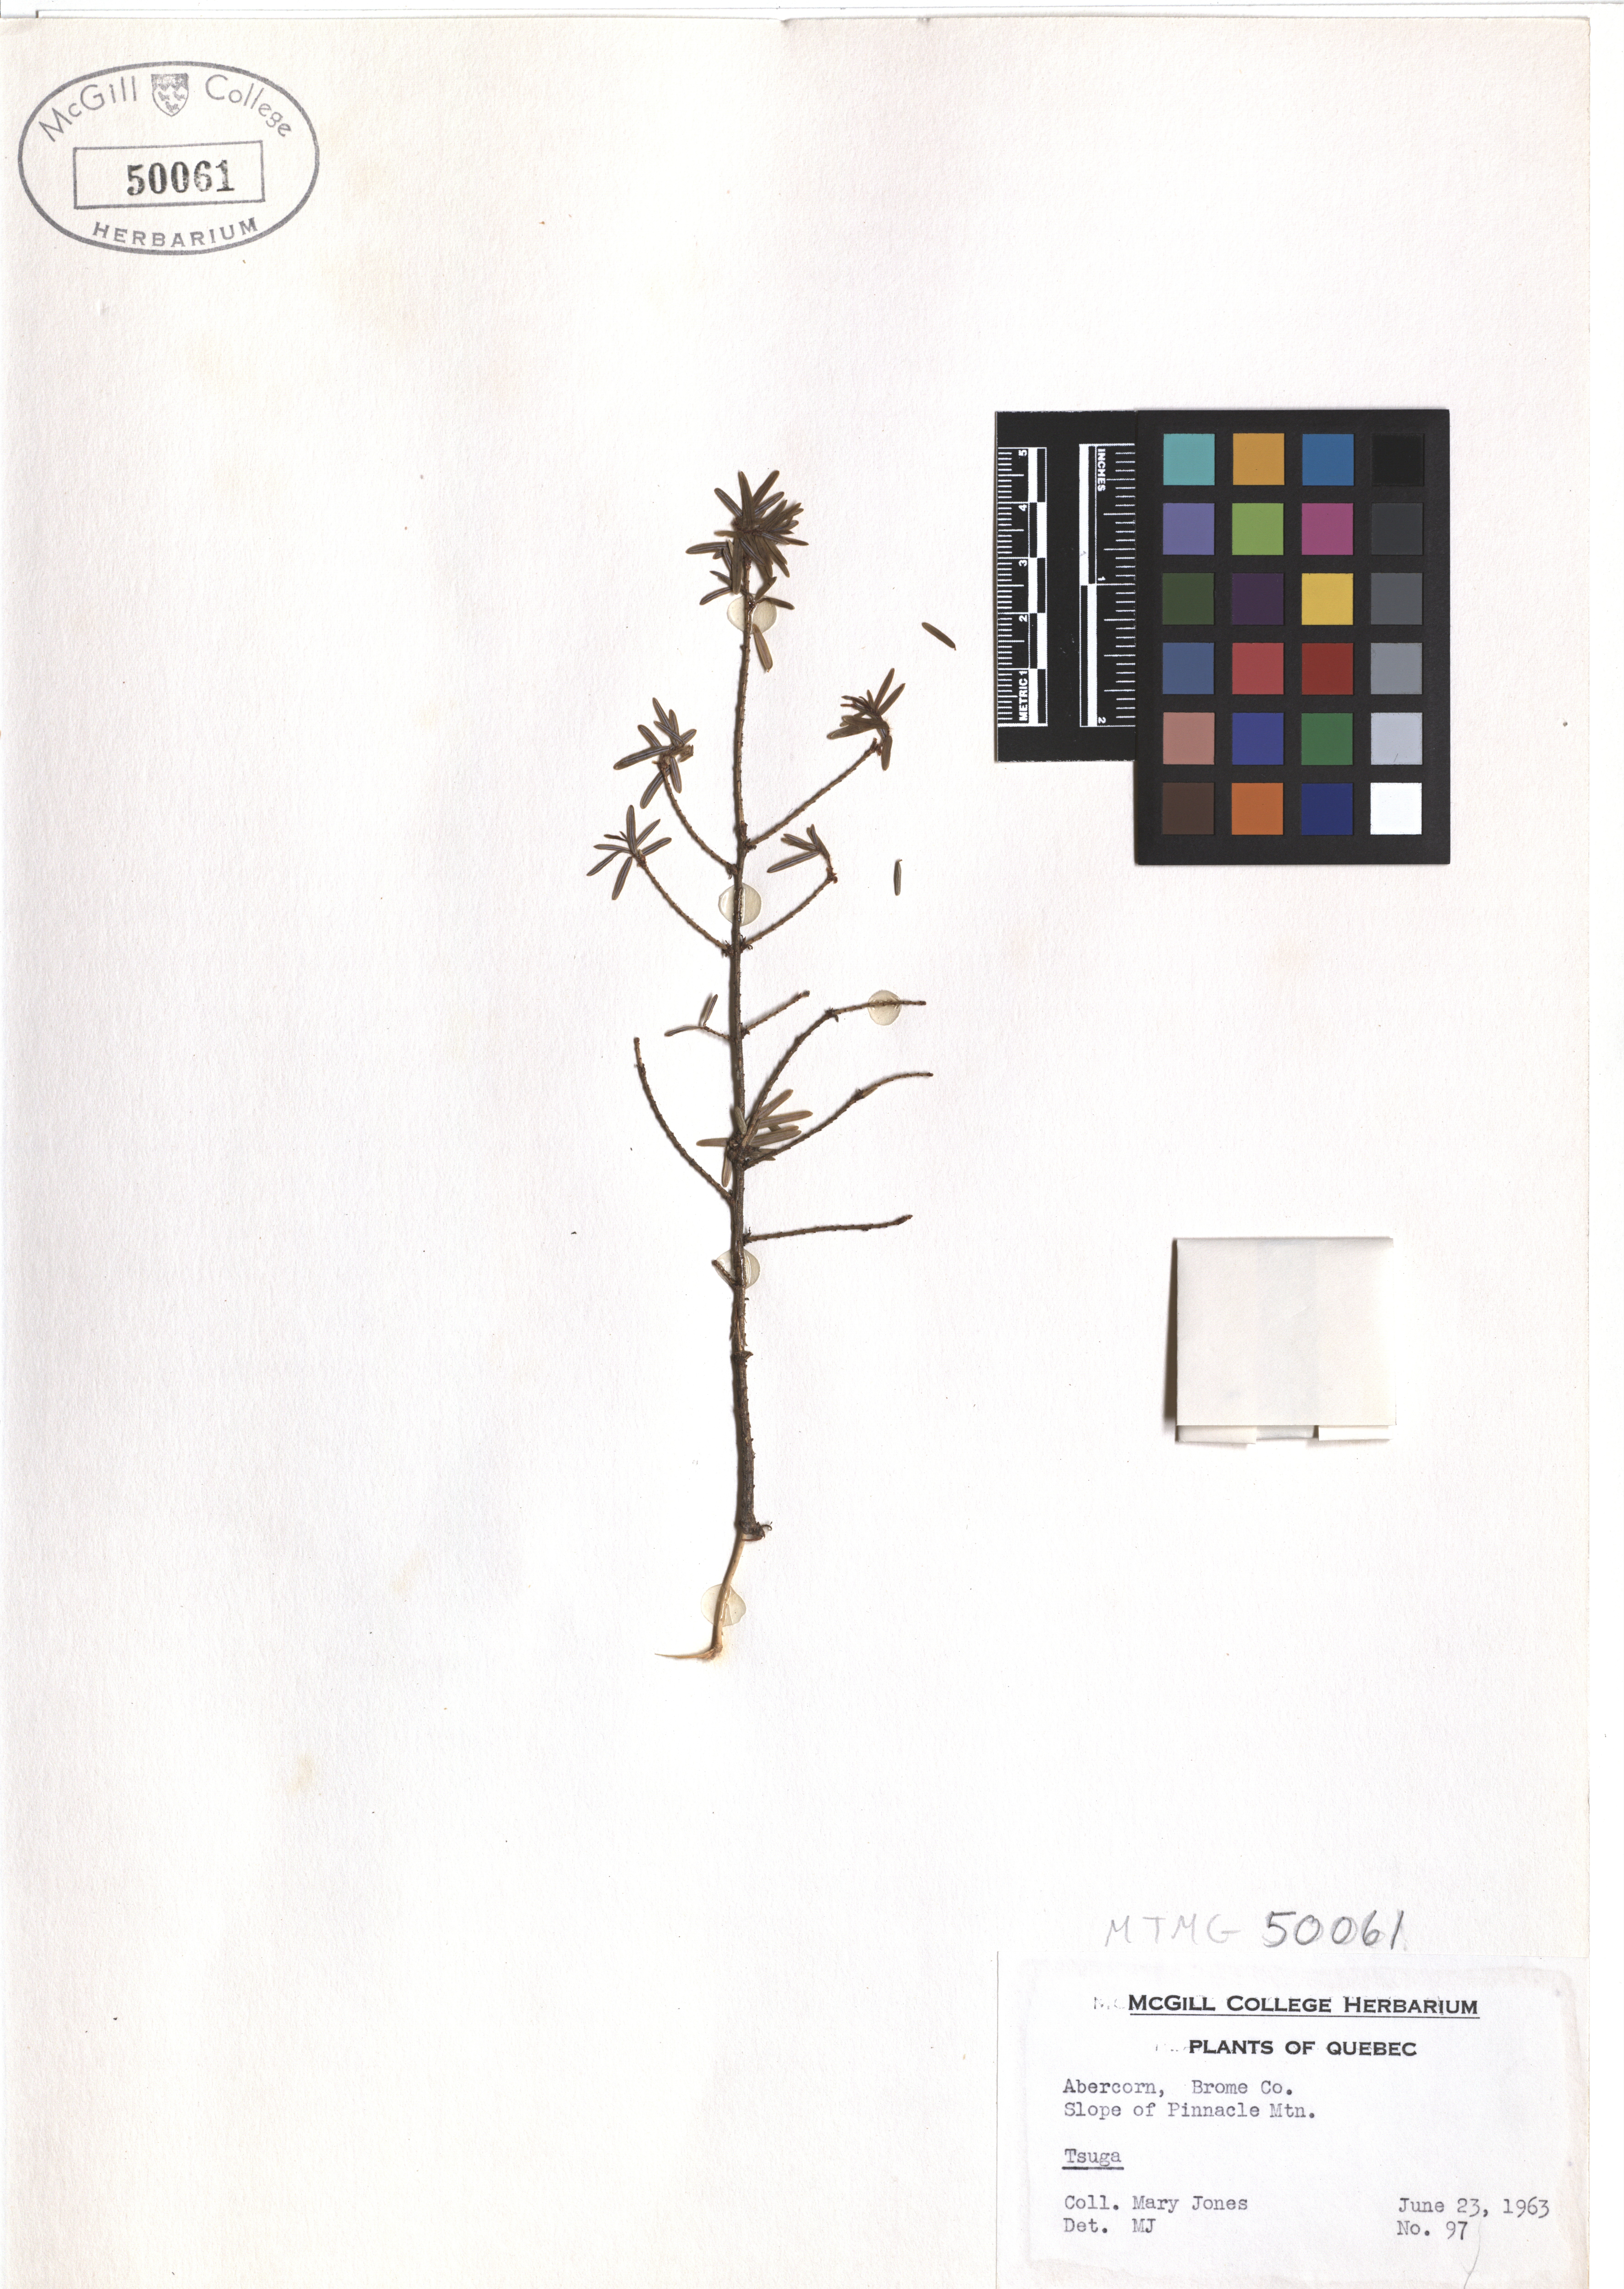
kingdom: Plantae
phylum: Tracheophyta
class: Pinopsida
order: Pinales
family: Pinaceae
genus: Tsuga
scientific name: Tsuga canadensis
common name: Eastern hemlock
